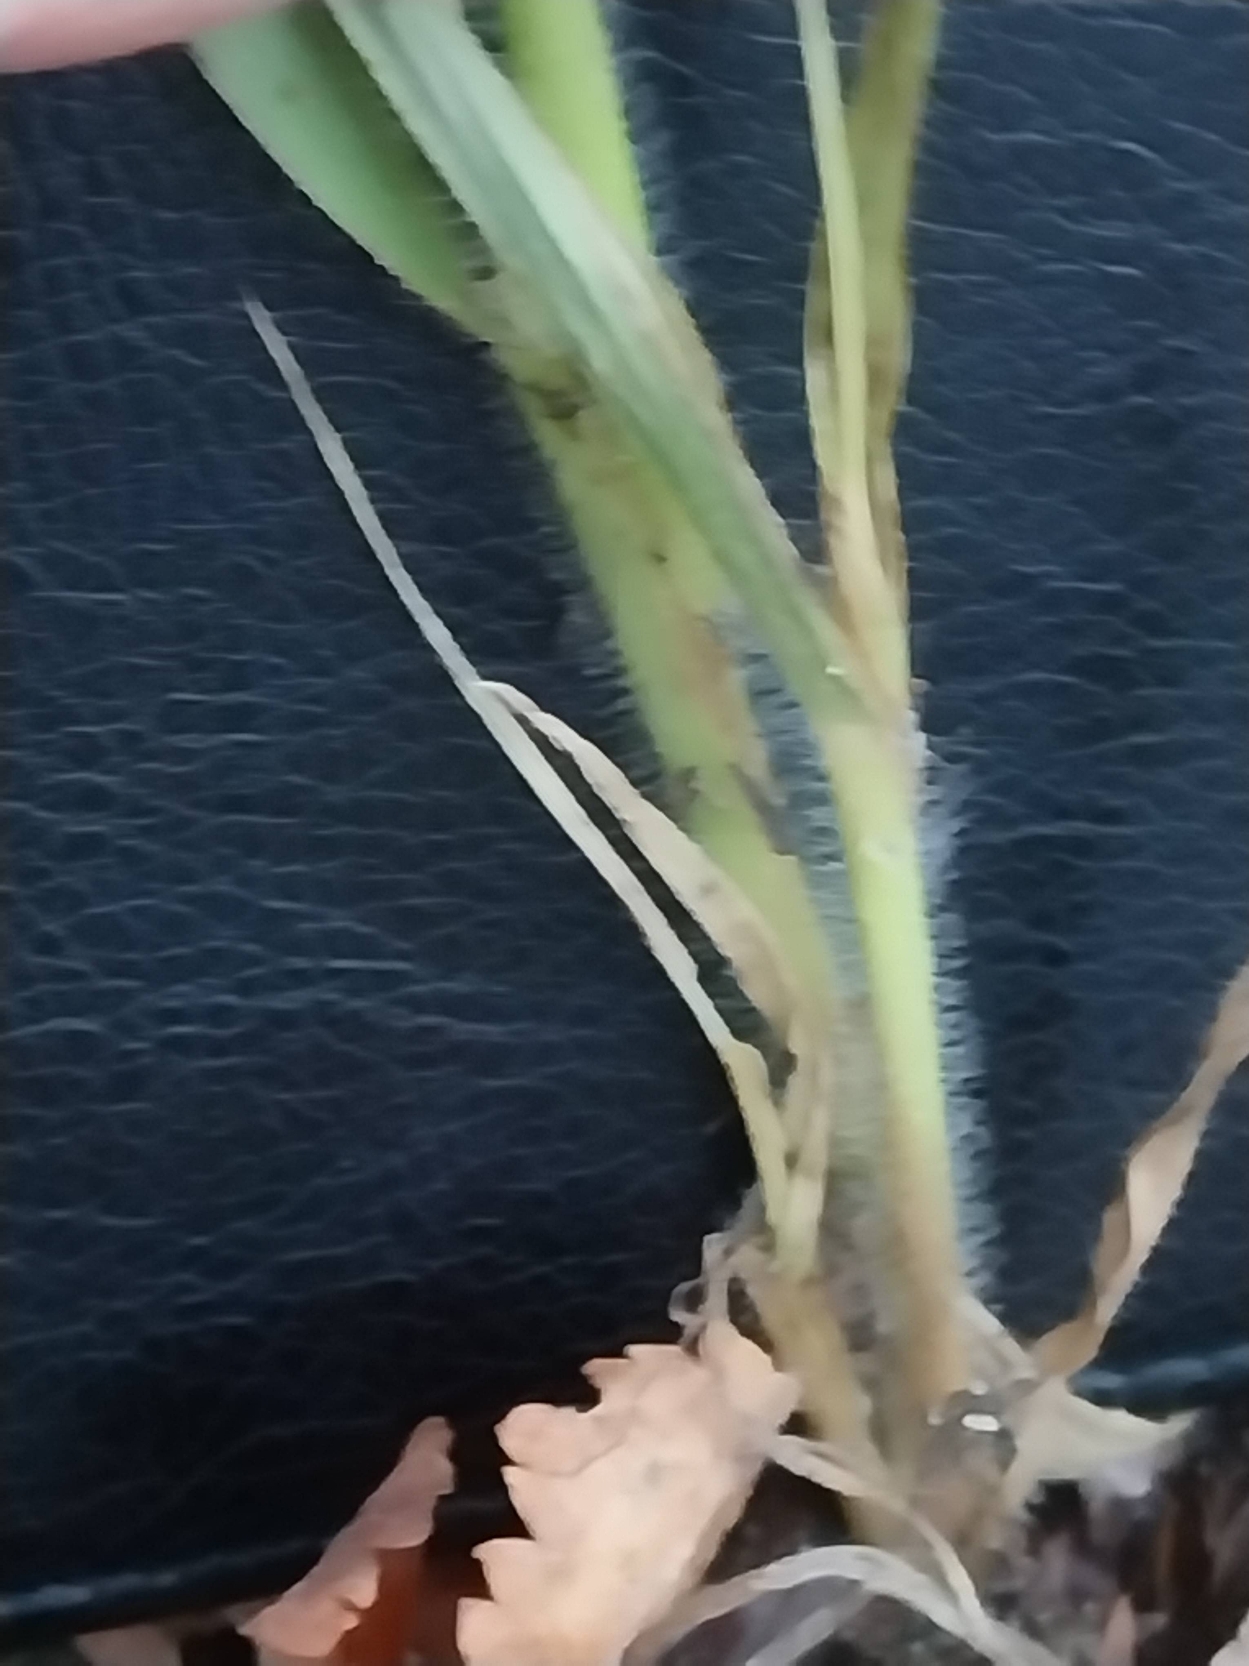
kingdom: Plantae
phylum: Tracheophyta
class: Liliopsida
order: Poales
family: Poaceae
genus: Panicum
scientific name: Panicum capillare
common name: Hårfin hirse
